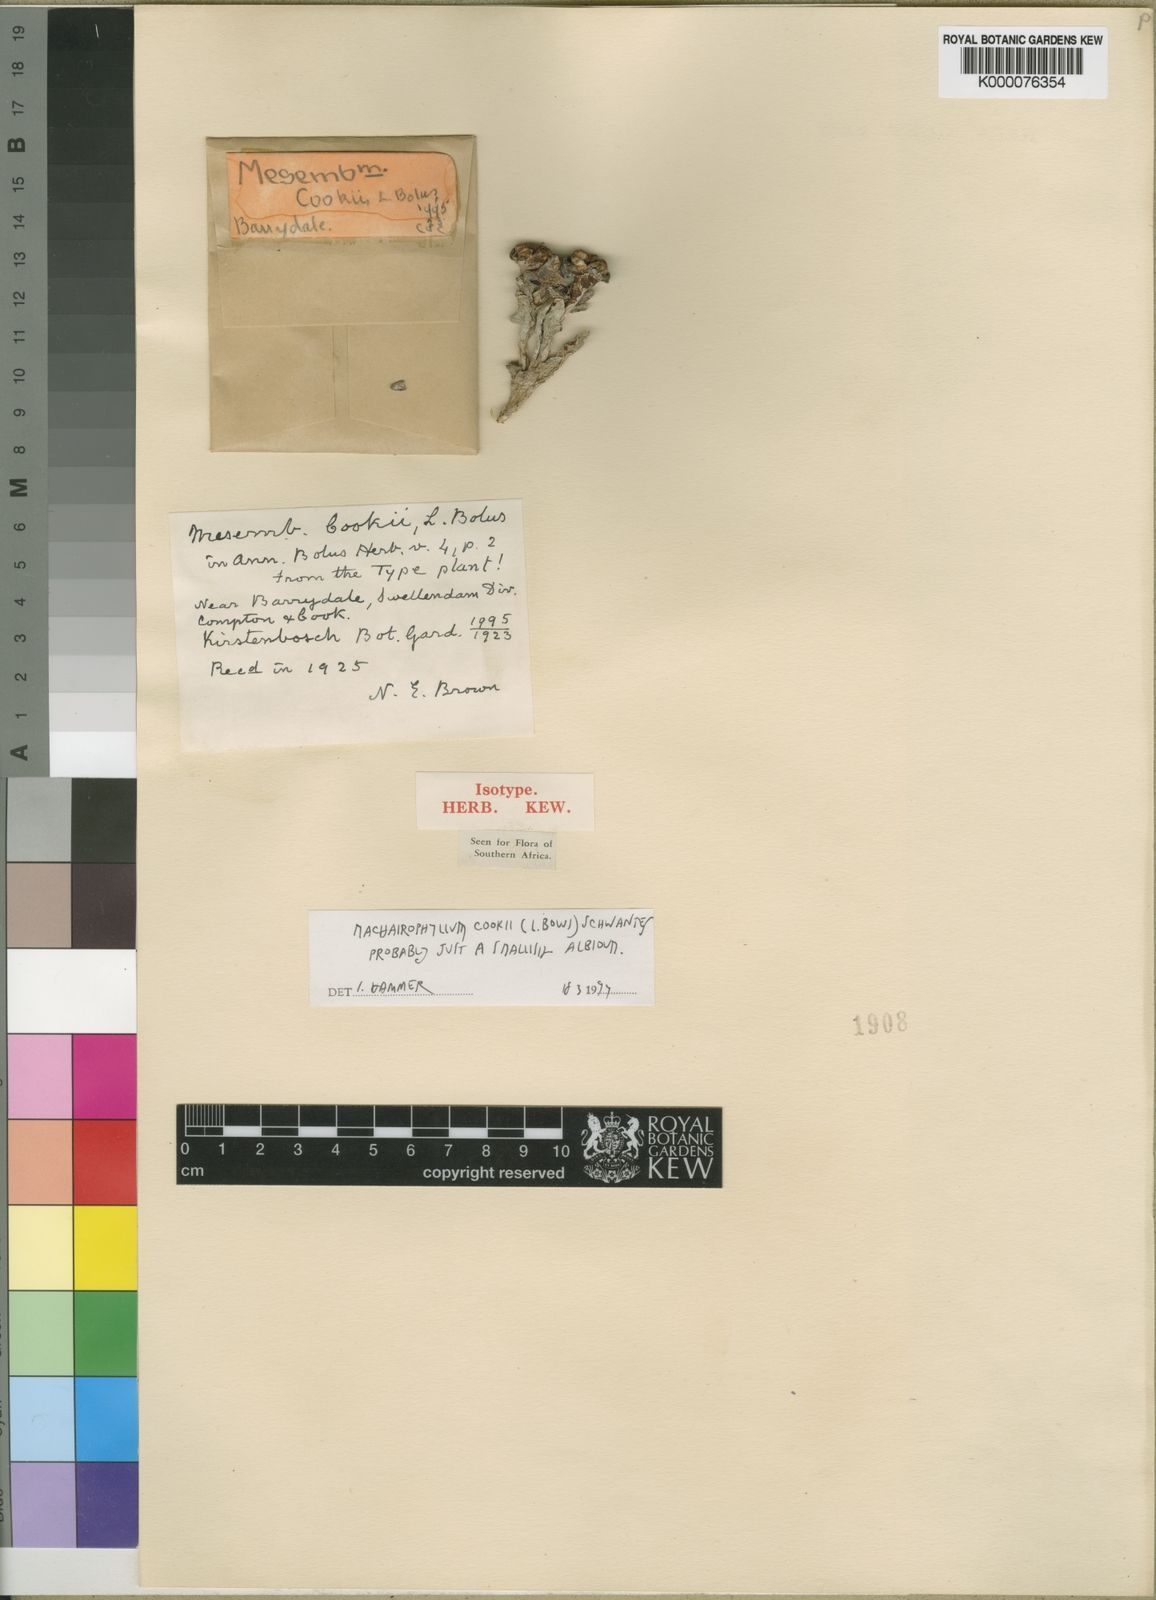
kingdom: Plantae
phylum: Tracheophyta
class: Magnoliopsida
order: Caryophyllales
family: Aizoaceae
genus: Machairophyllum
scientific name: Machairophyllum albidum
